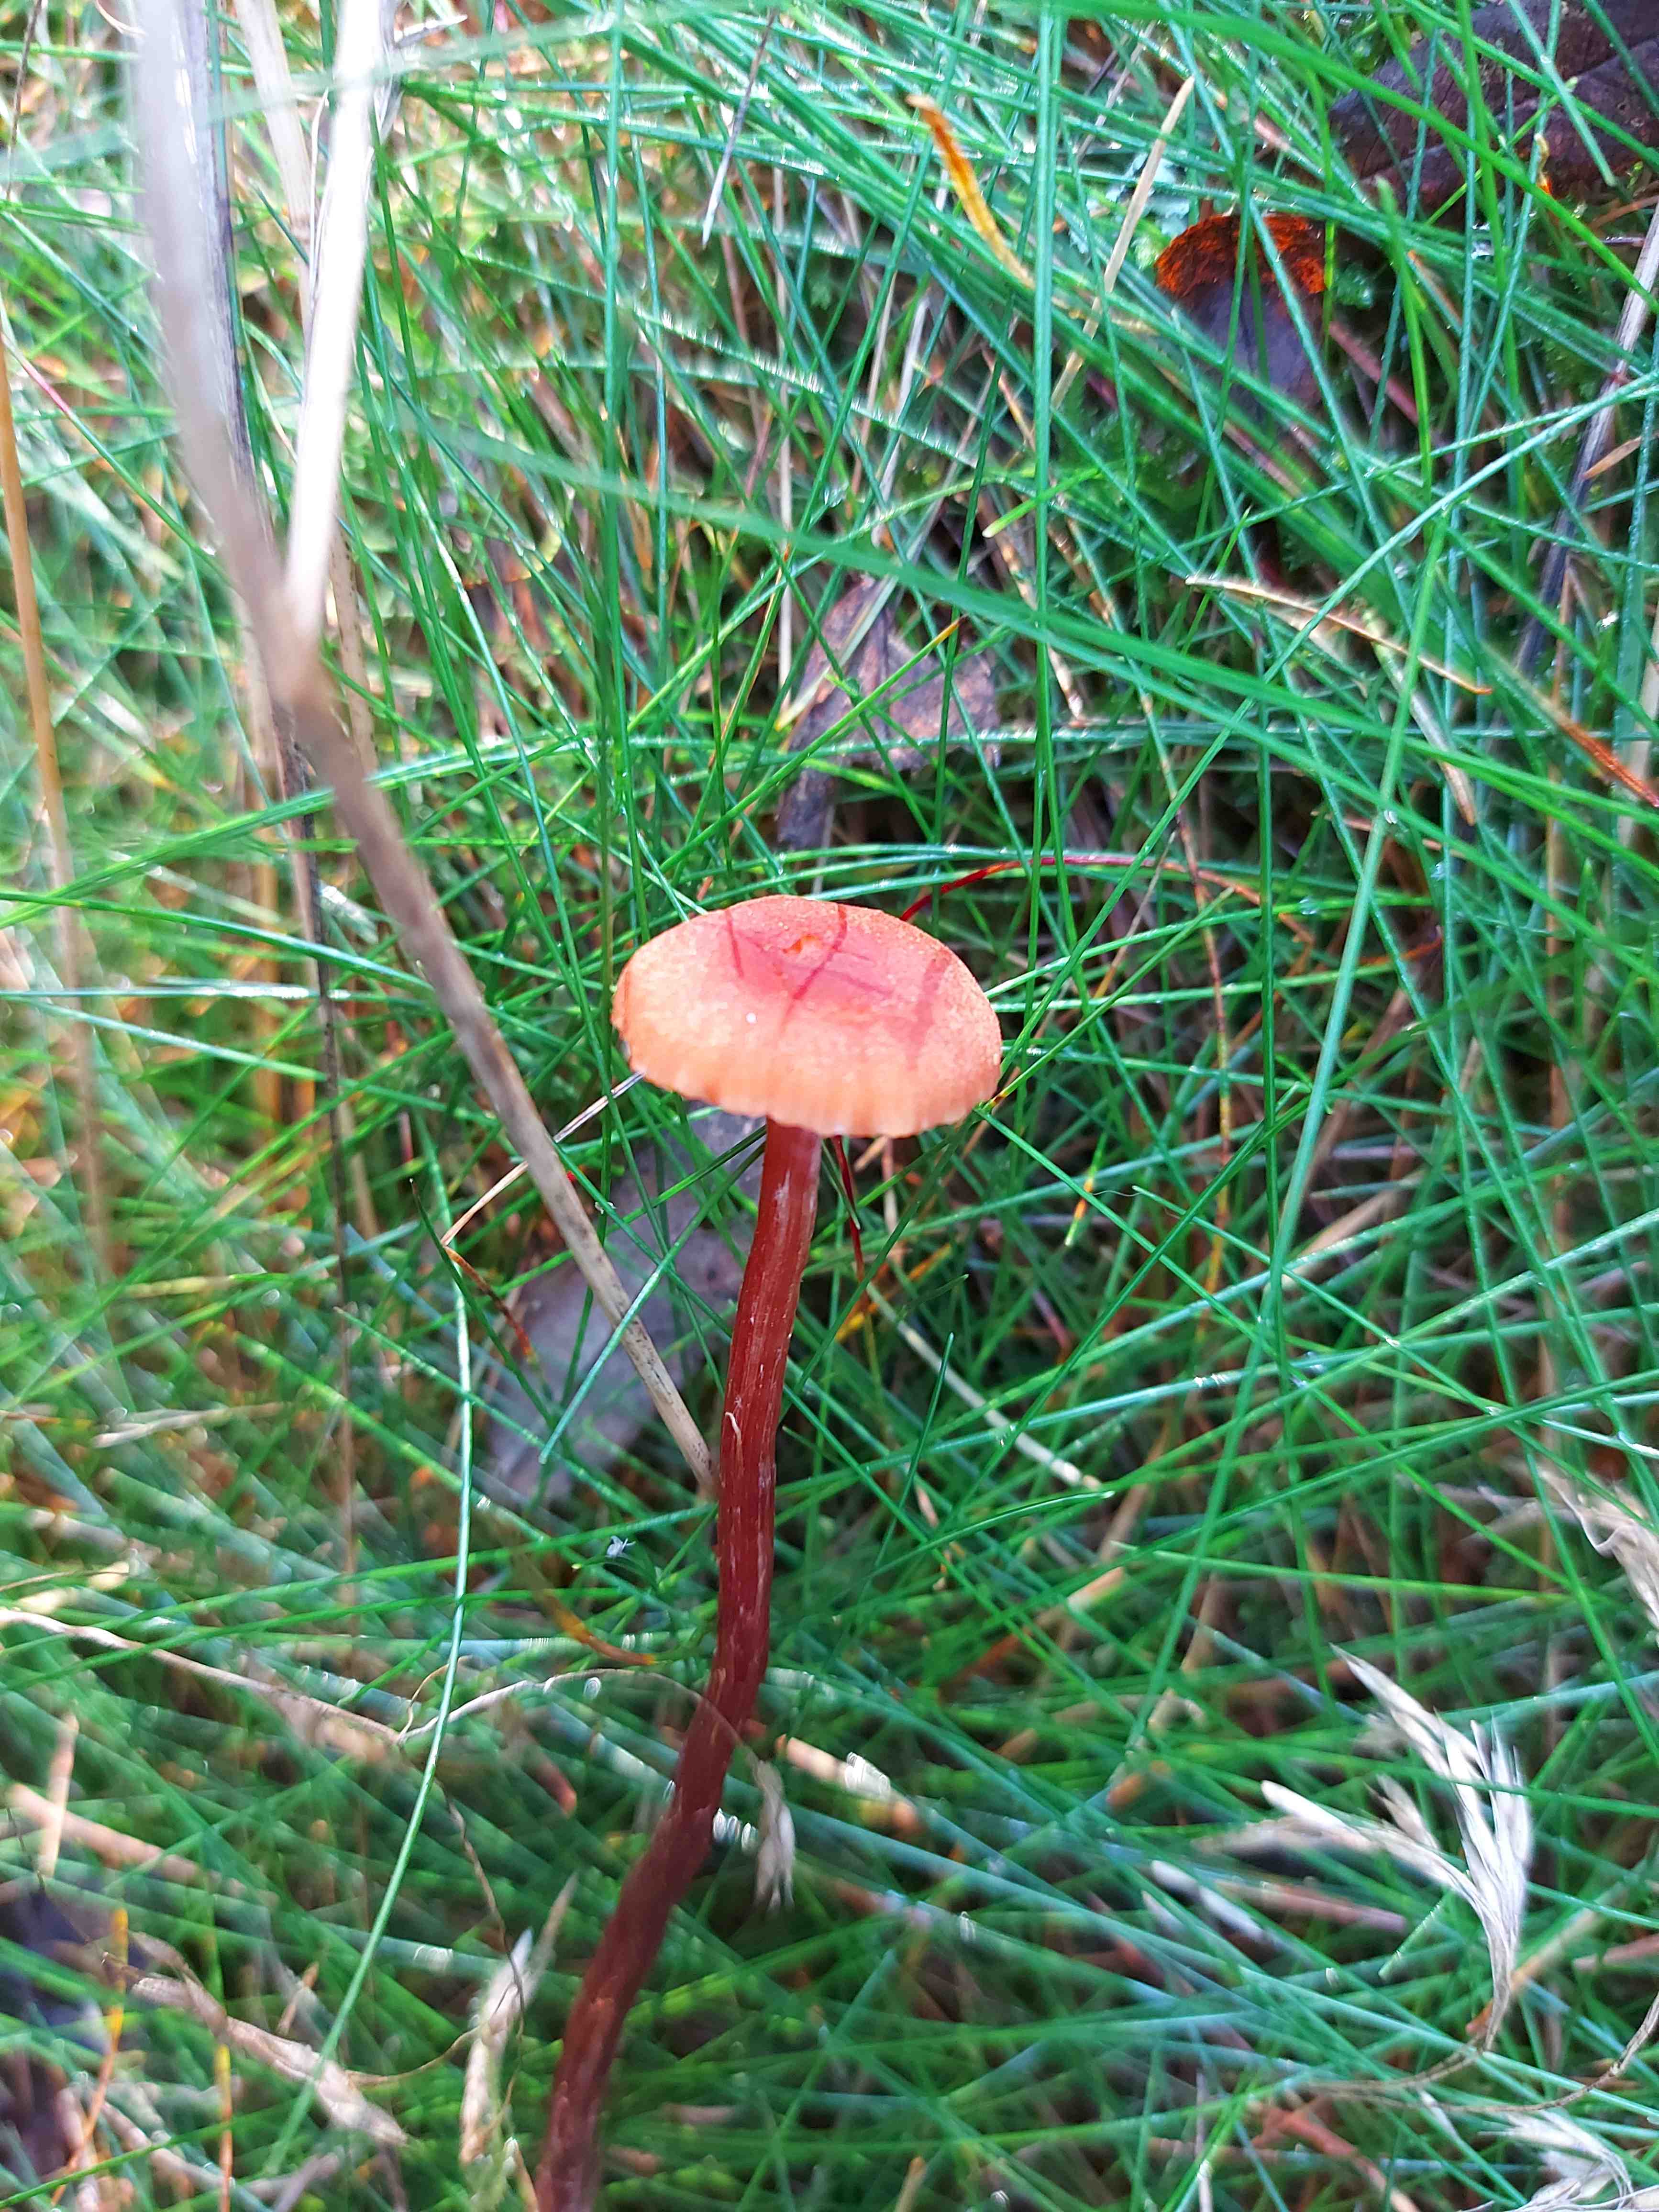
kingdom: Fungi
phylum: Basidiomycota
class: Agaricomycetes
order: Agaricales
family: Hydnangiaceae
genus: Laccaria
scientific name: Laccaria proxima
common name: stor ametysthat
